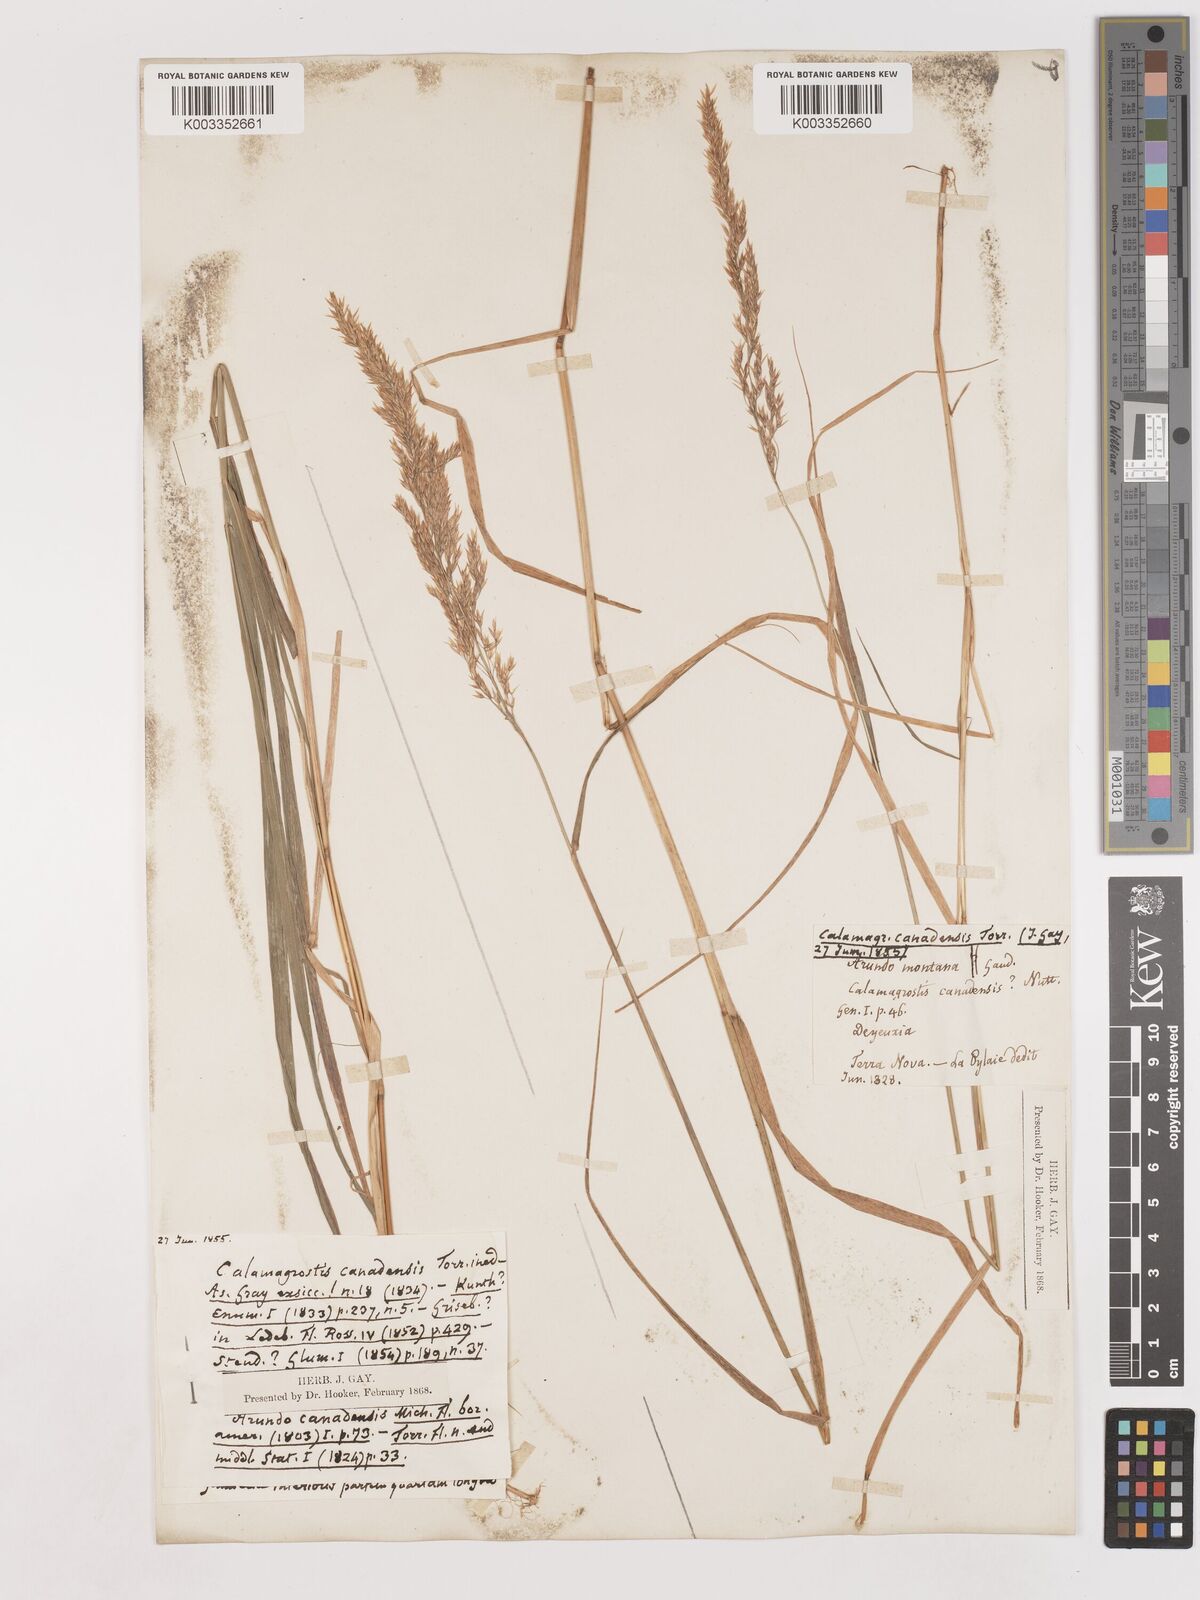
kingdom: Plantae
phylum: Tracheophyta
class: Liliopsida
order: Poales
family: Poaceae
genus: Calamagrostis
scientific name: Calamagrostis canadensis
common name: Canada bluejoint
